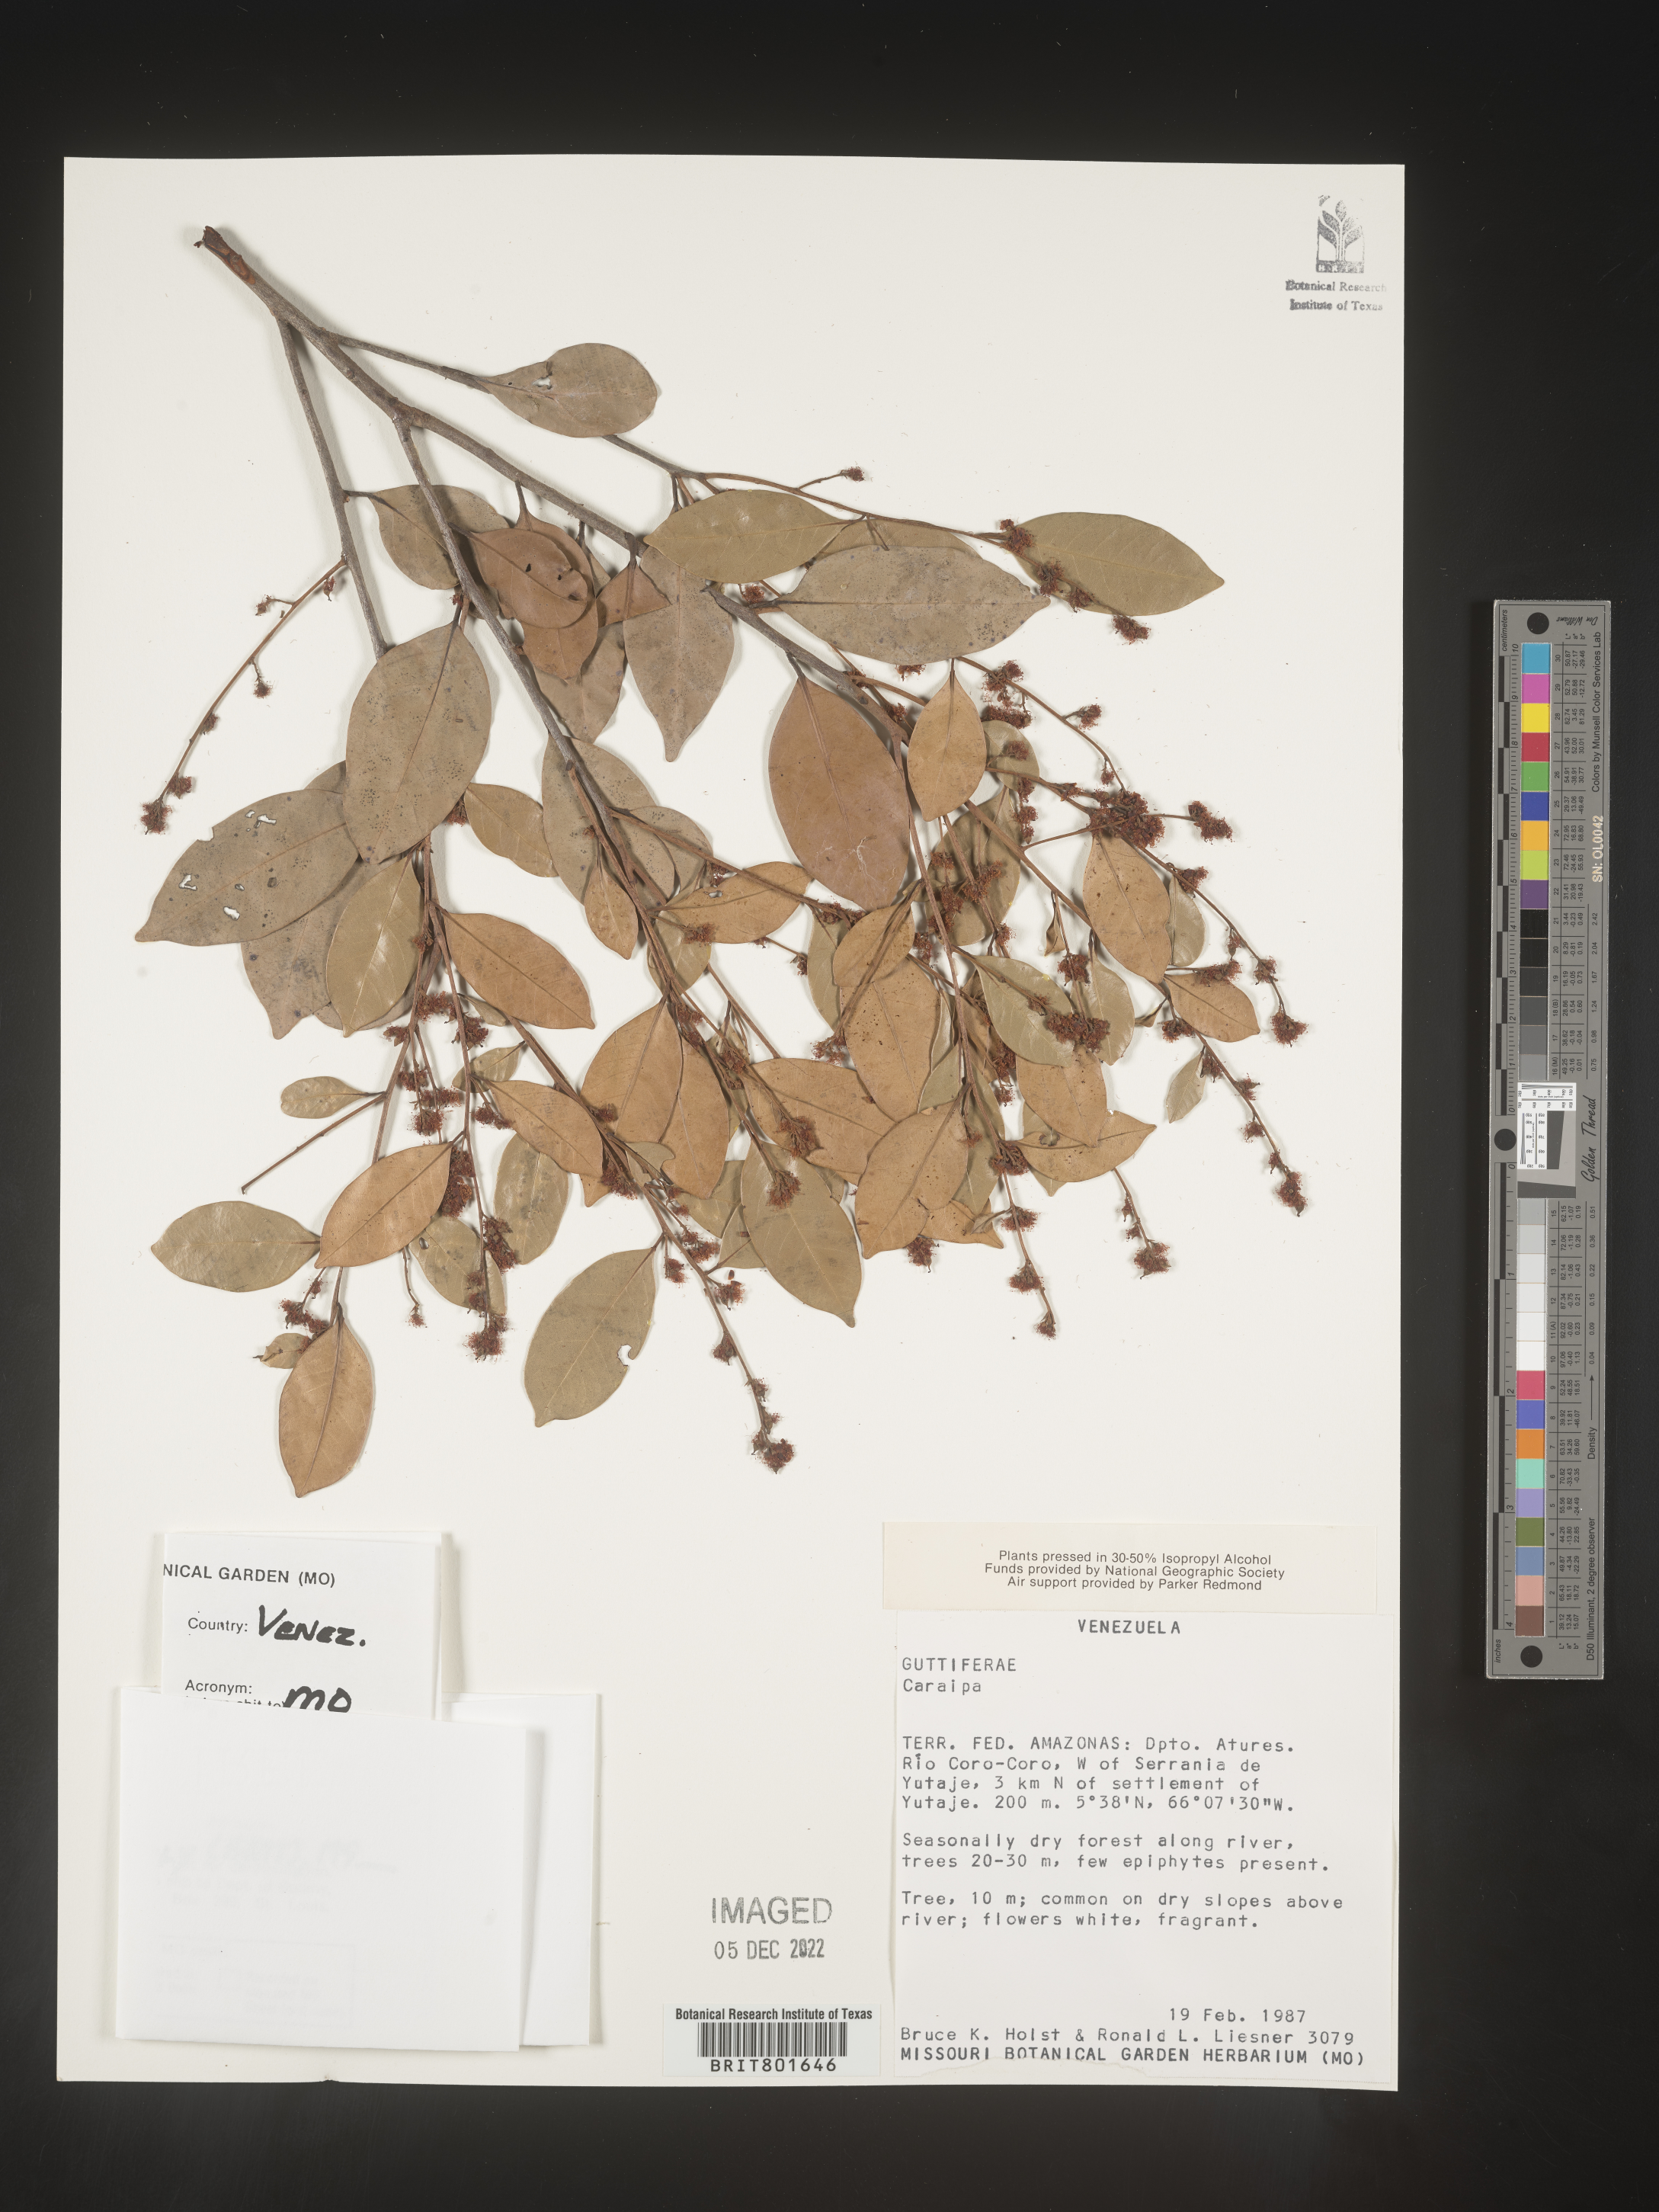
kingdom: Plantae
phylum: Tracheophyta
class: Magnoliopsida
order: Malpighiales
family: Calophyllaceae
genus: Caraipa
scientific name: Caraipa
